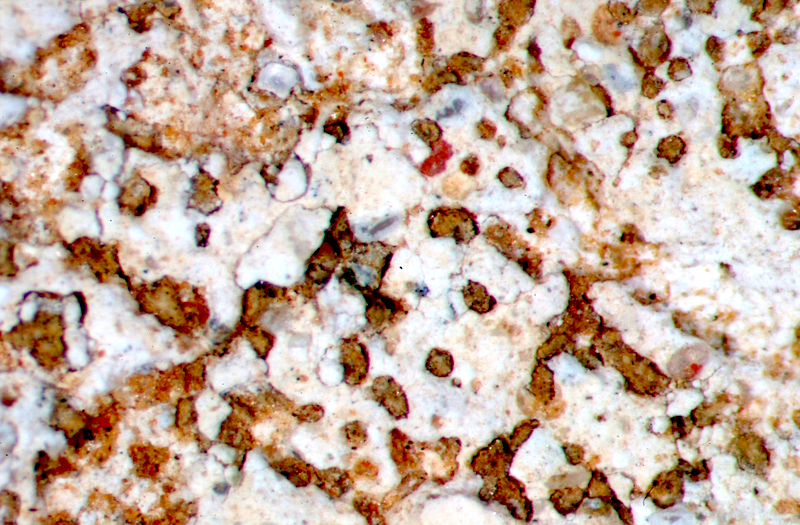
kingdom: Fungi
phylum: Ascomycota
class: Lecanoromycetes
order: Baeomycetales
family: Trapeliaceae
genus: Trapelia
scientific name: Trapelia
